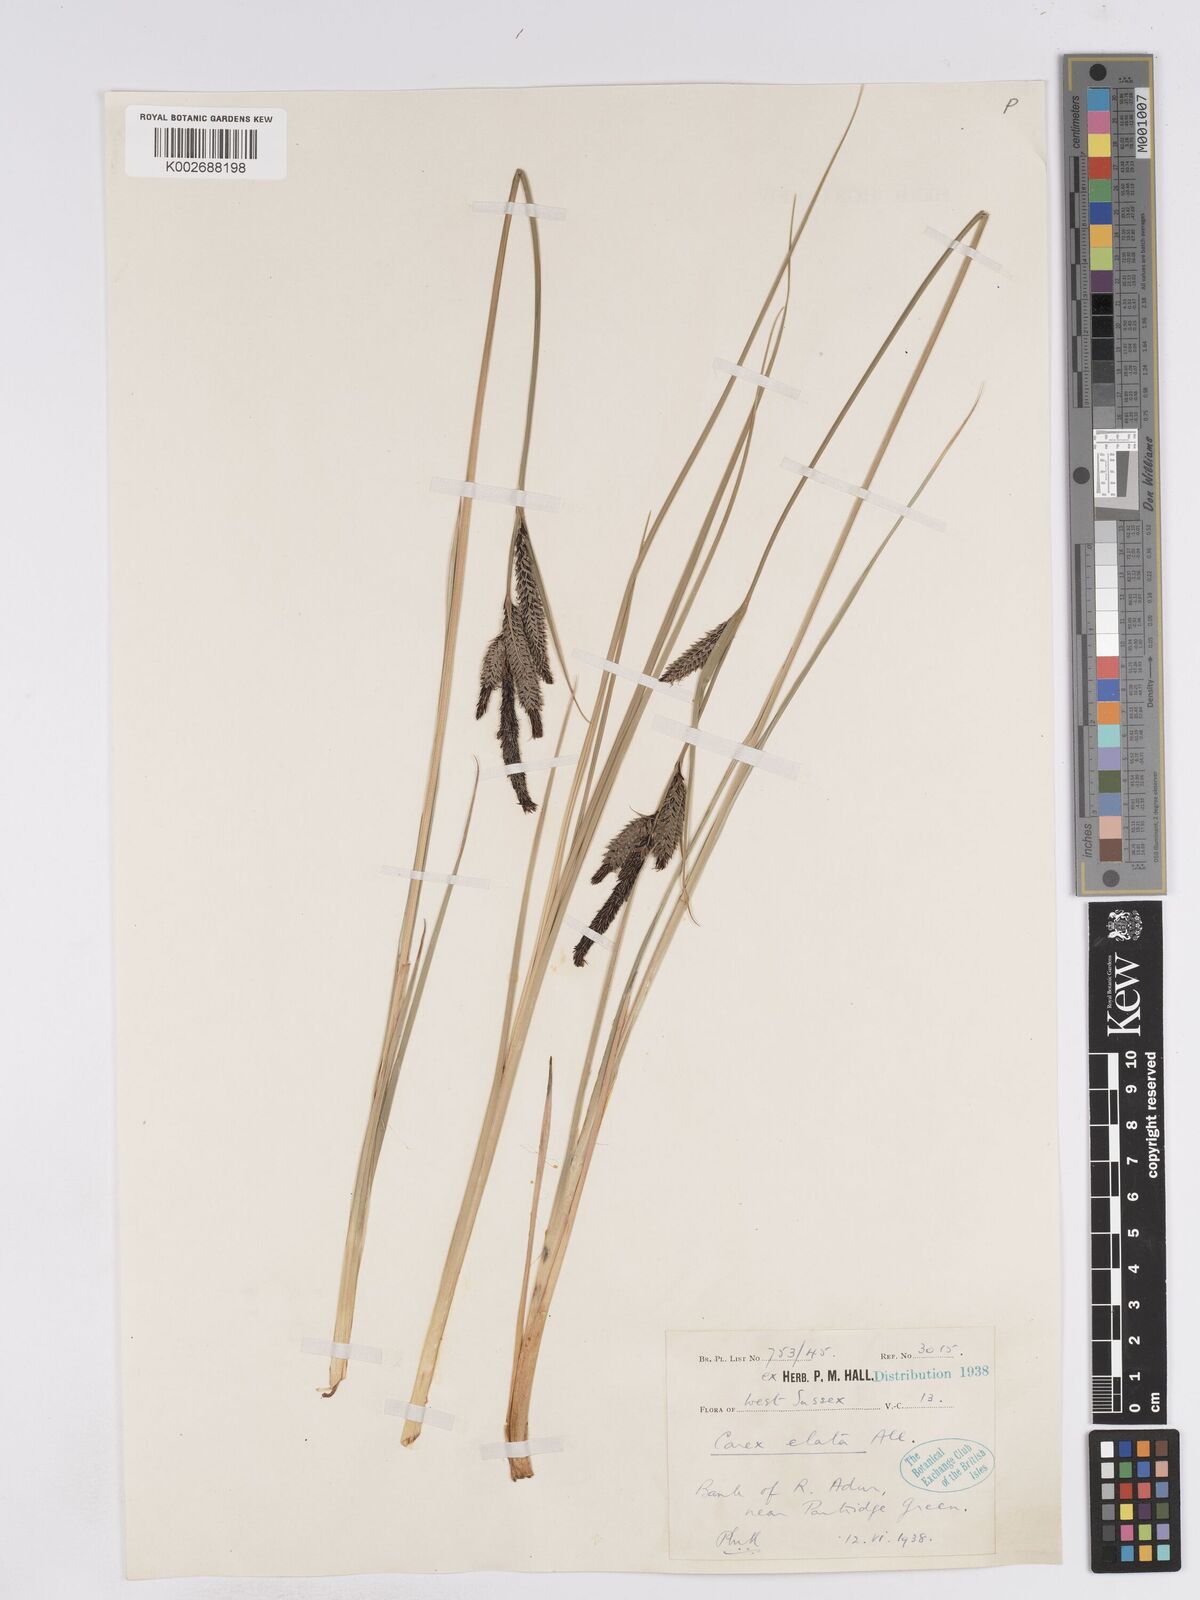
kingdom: Plantae
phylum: Tracheophyta
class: Liliopsida
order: Poales
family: Cyperaceae
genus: Carex
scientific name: Carex elata
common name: Tufted sedge
